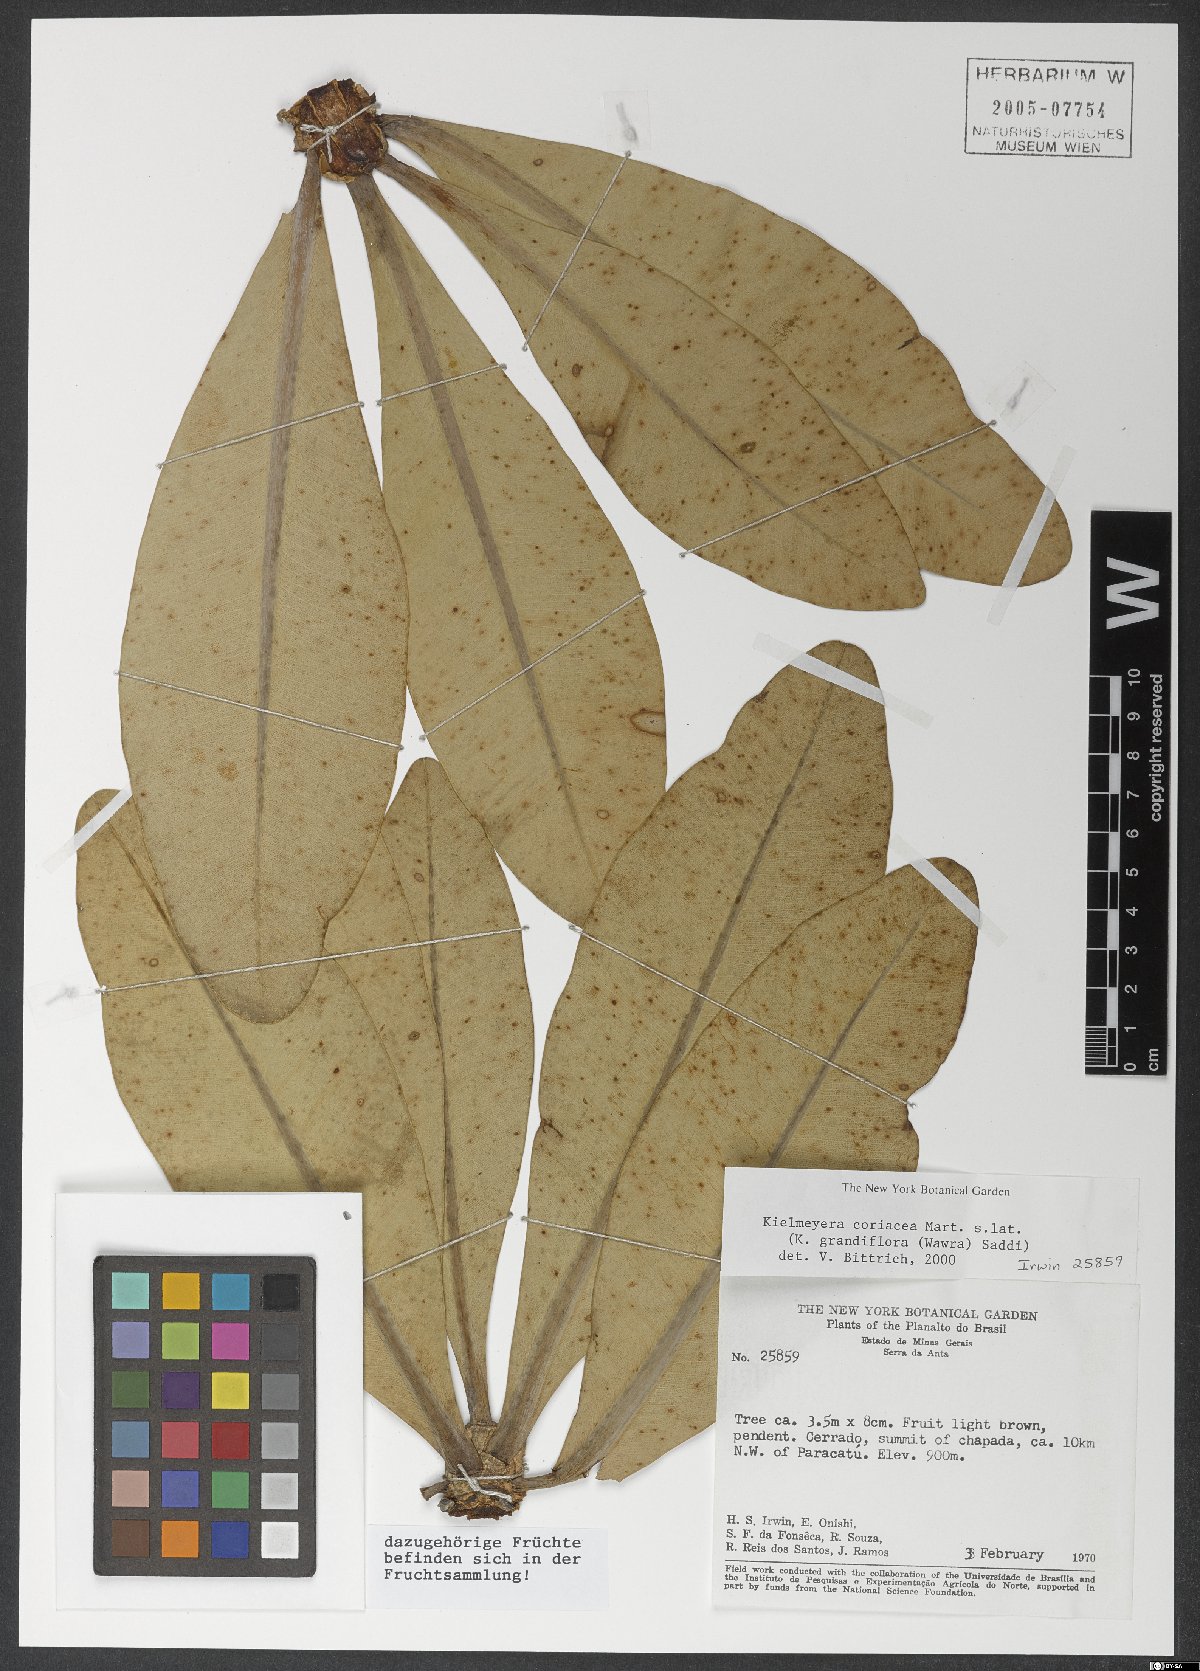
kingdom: Plantae
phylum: Tracheophyta
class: Magnoliopsida
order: Malpighiales
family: Calophyllaceae
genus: Kielmeyera
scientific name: Kielmeyera coriacea
